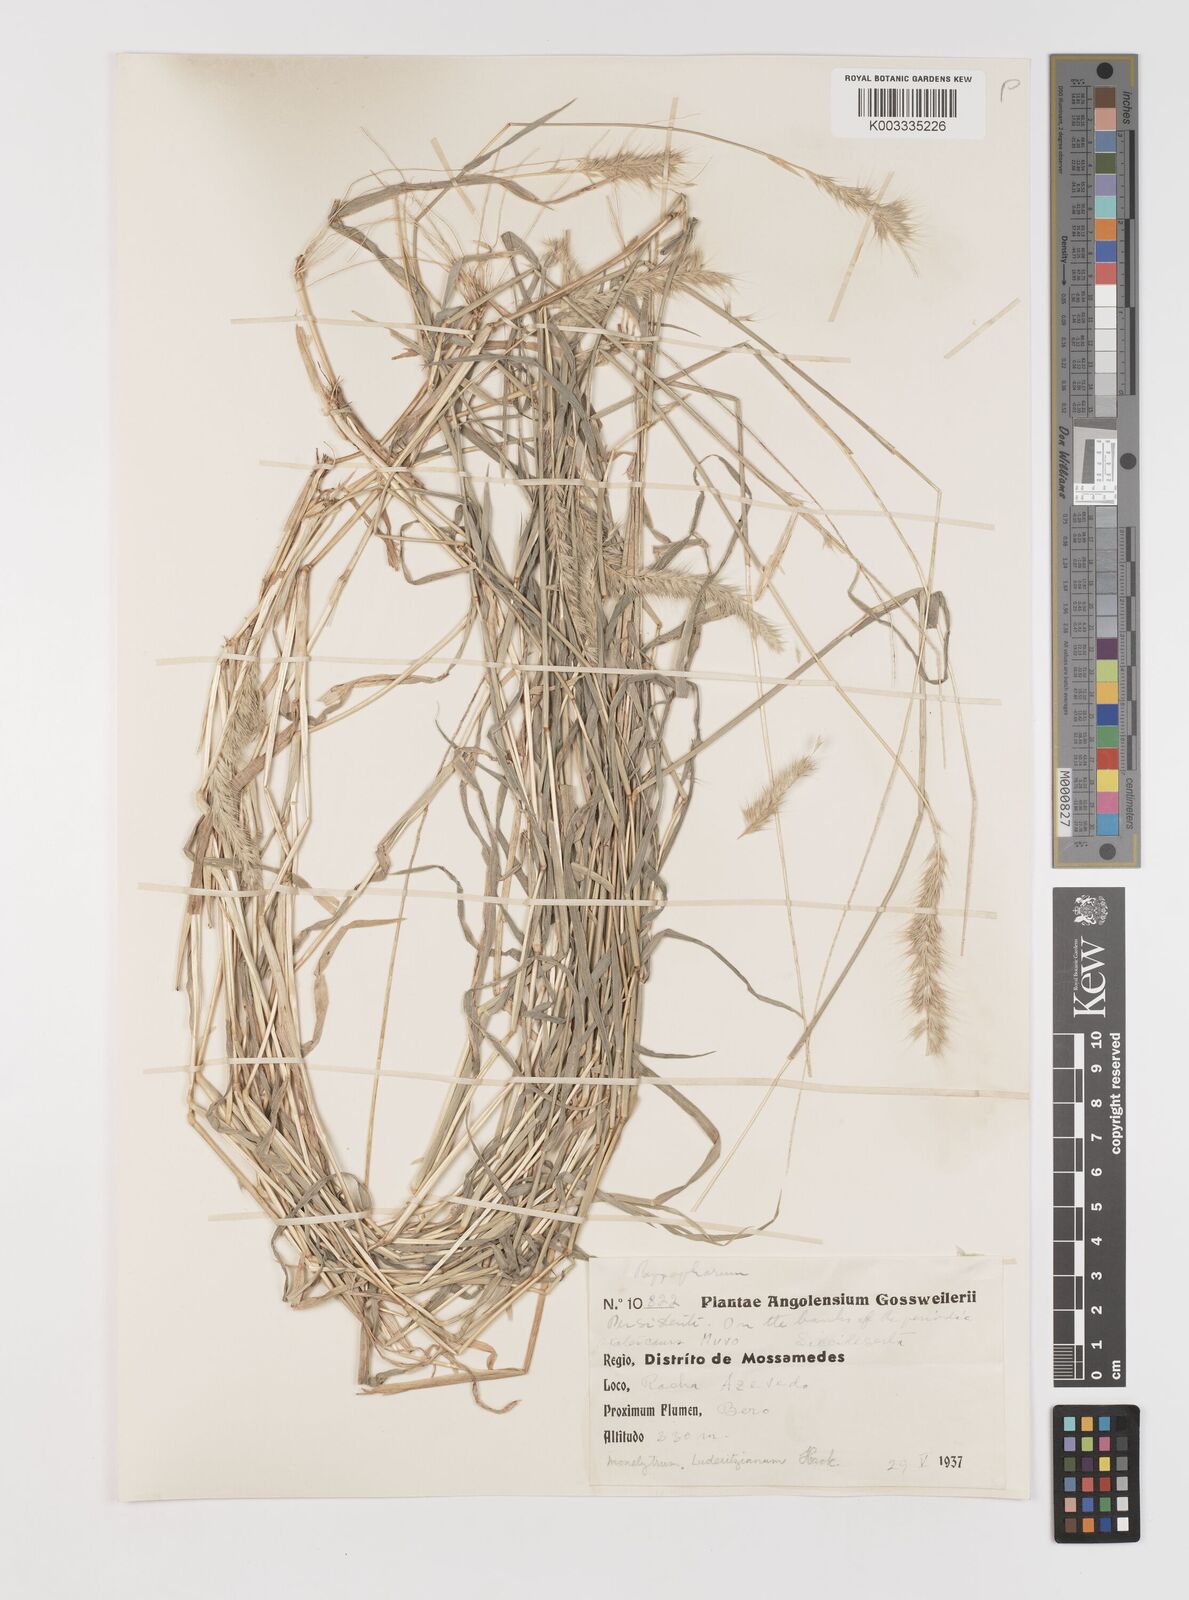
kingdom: Plantae
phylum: Tracheophyta
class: Liliopsida
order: Poales
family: Poaceae
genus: Monelytrum
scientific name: Monelytrum luederitzianum
